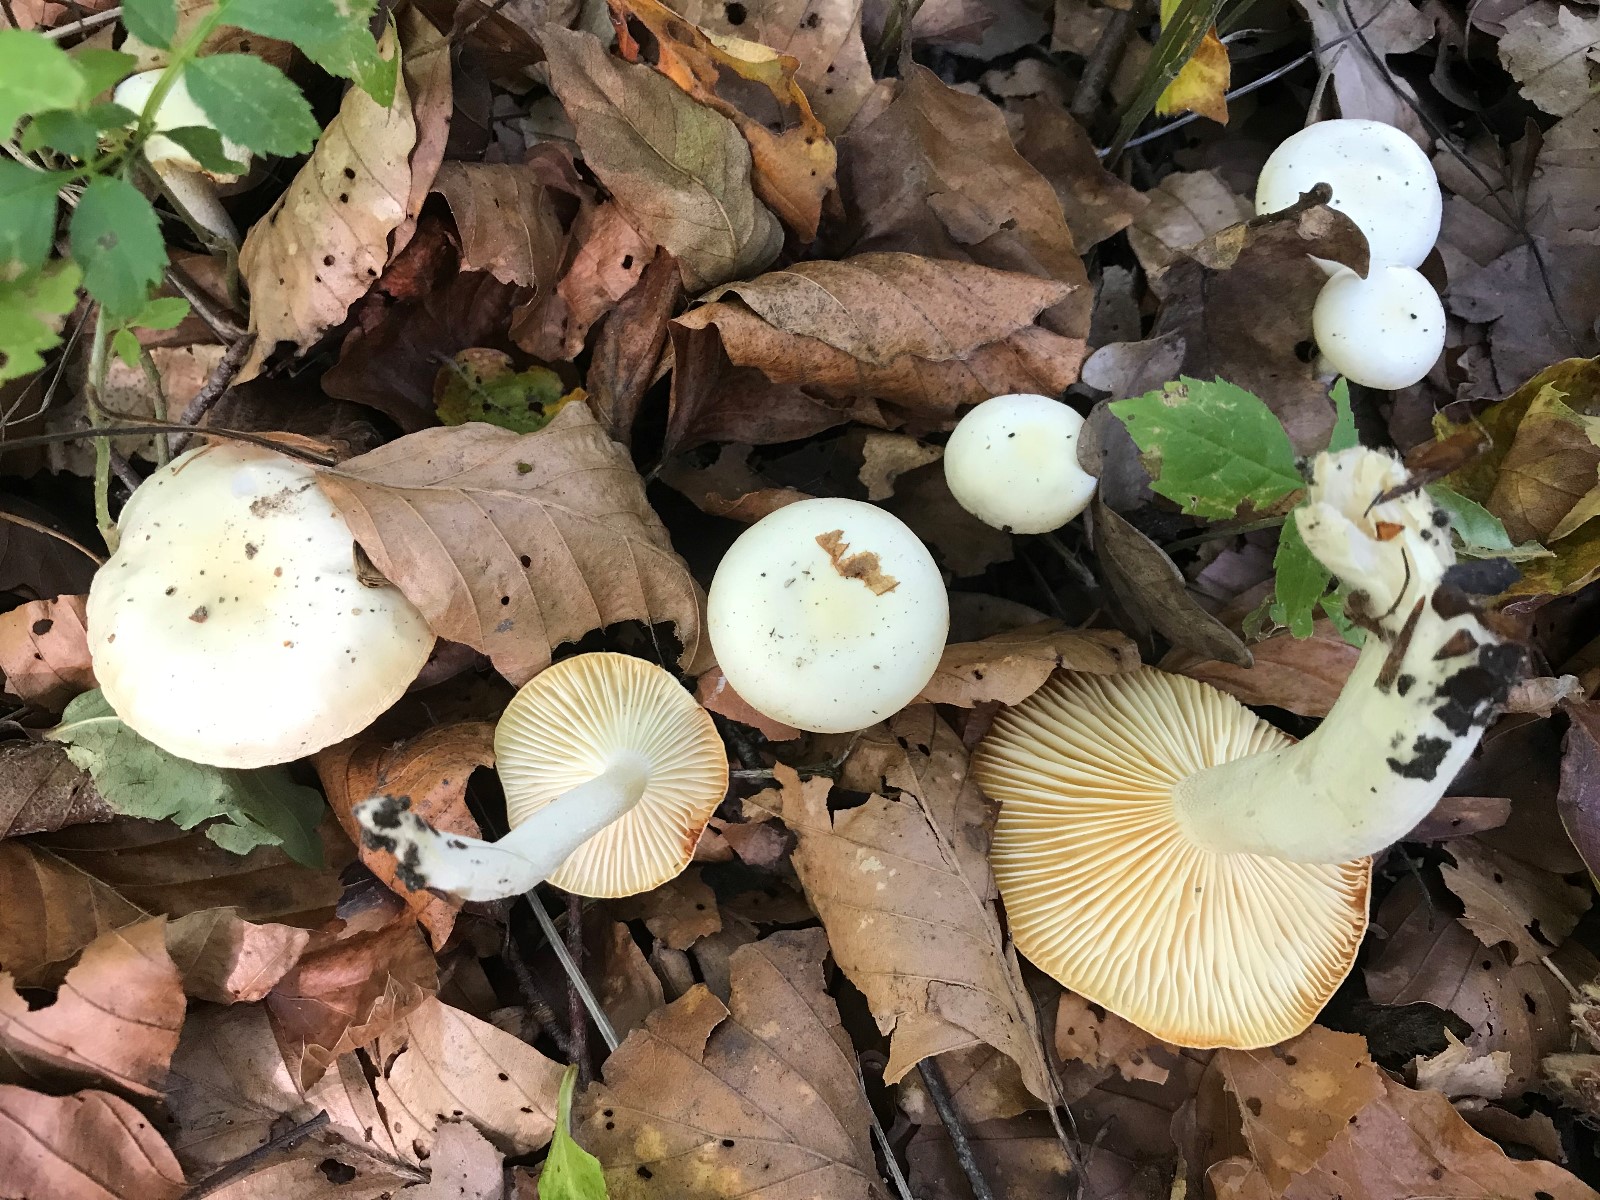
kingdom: Fungi
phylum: Basidiomycota
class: Agaricomycetes
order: Agaricales
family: Hygrophoraceae
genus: Hygrophorus
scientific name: Hygrophorus discoxanthus
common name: ildelugtende sneglehat
